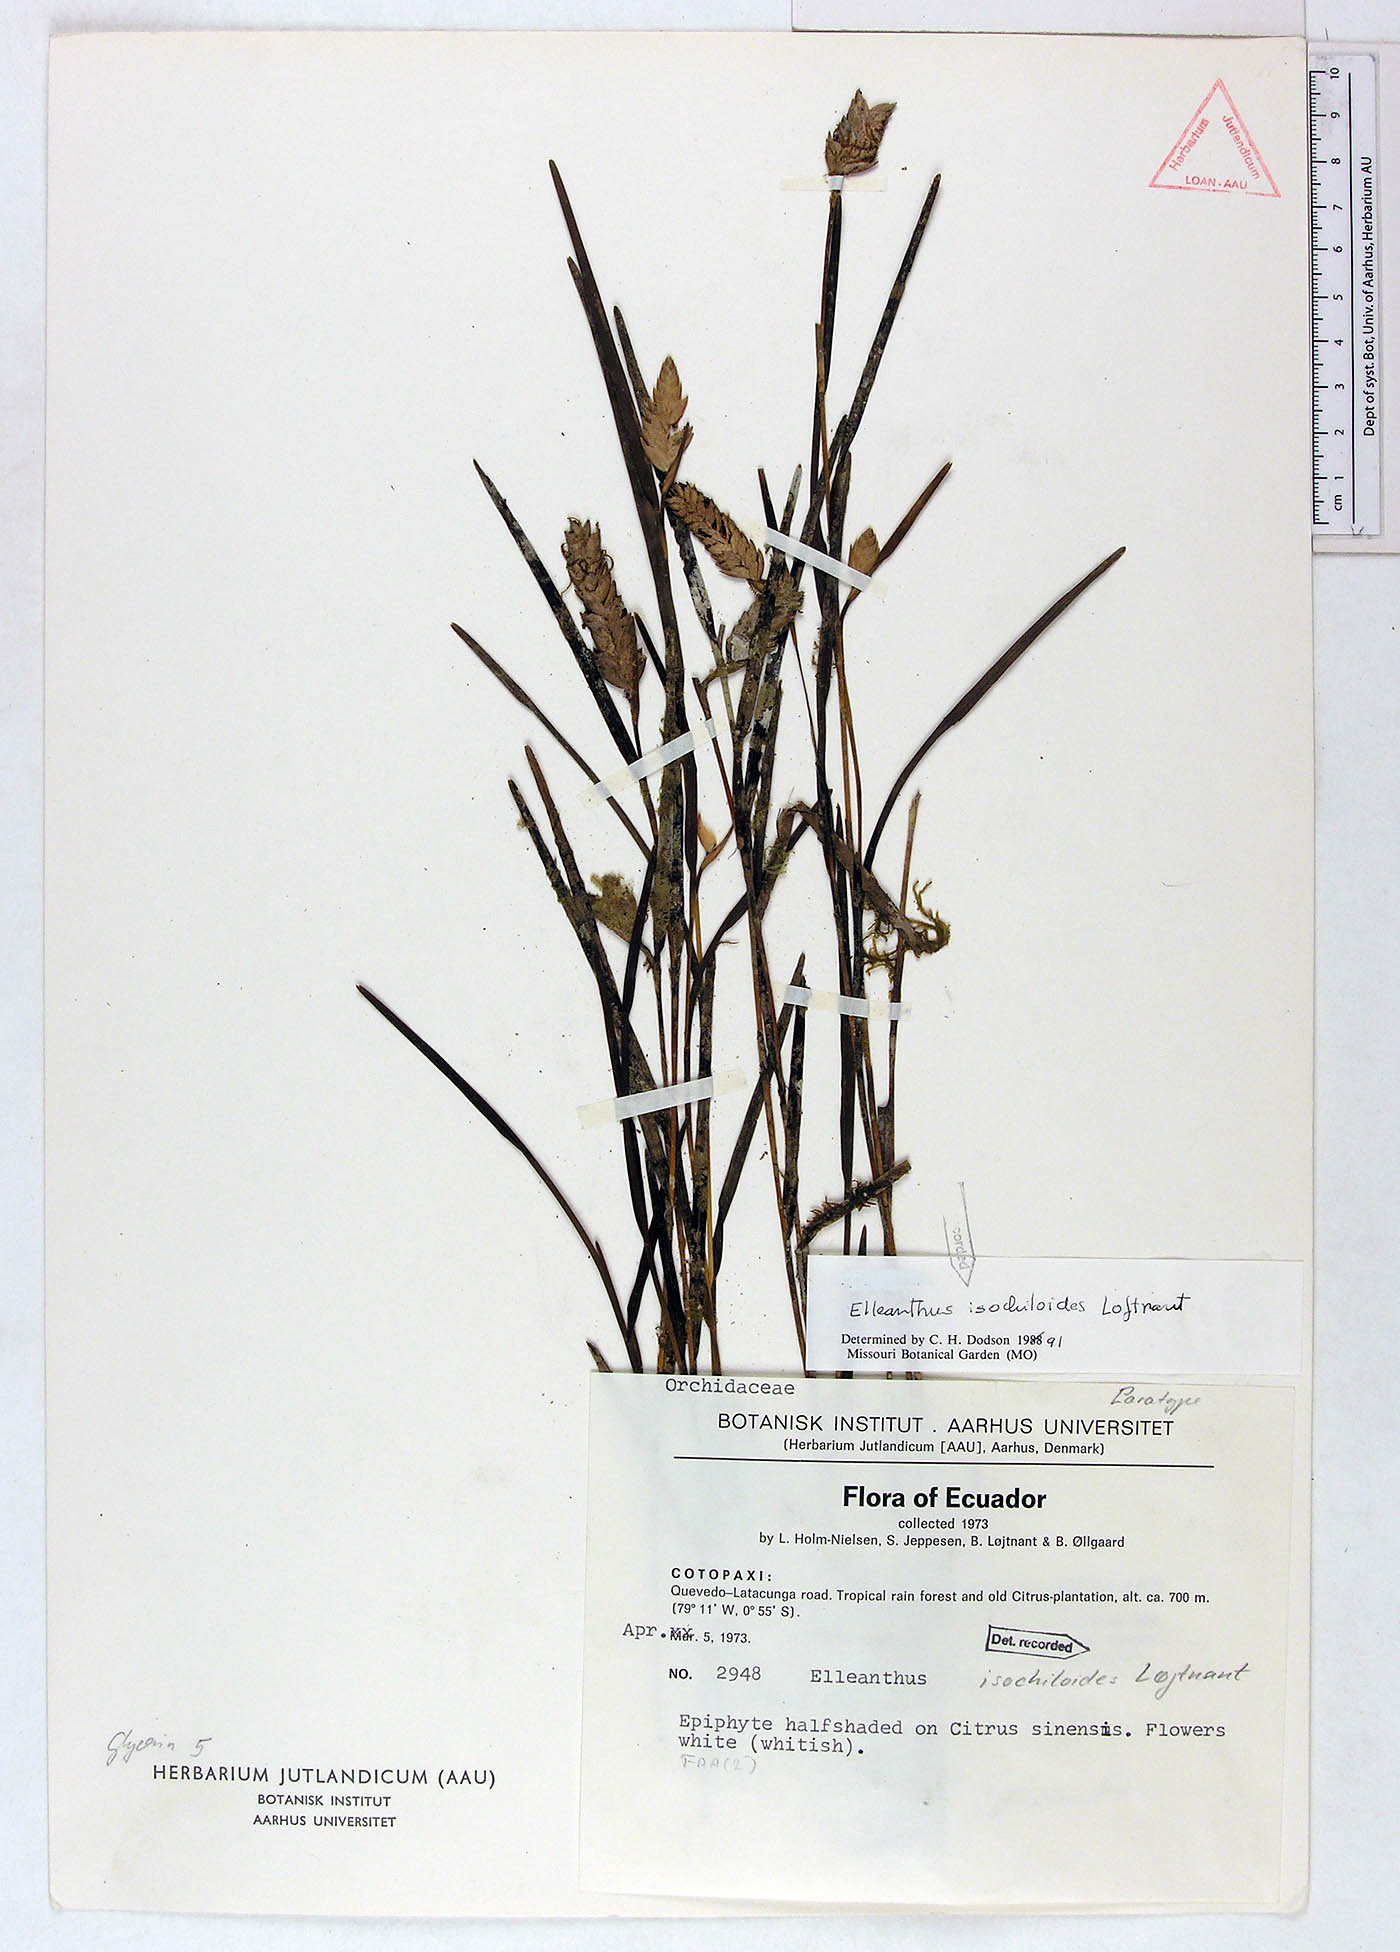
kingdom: Plantae
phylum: Tracheophyta
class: Liliopsida
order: Asparagales
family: Orchidaceae
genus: Elleanthus
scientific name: Elleanthus isochiloides
